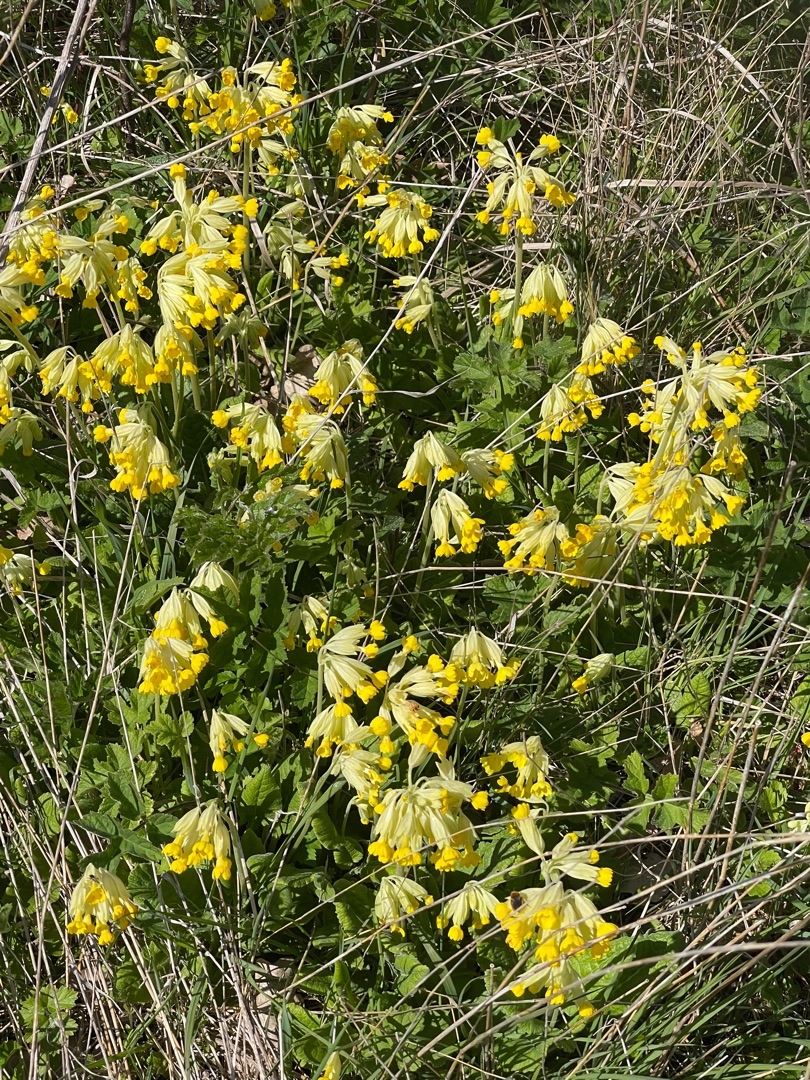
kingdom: Plantae
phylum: Tracheophyta
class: Magnoliopsida
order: Ericales
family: Primulaceae
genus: Primula
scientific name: Primula veris
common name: Hulkravet kodriver
